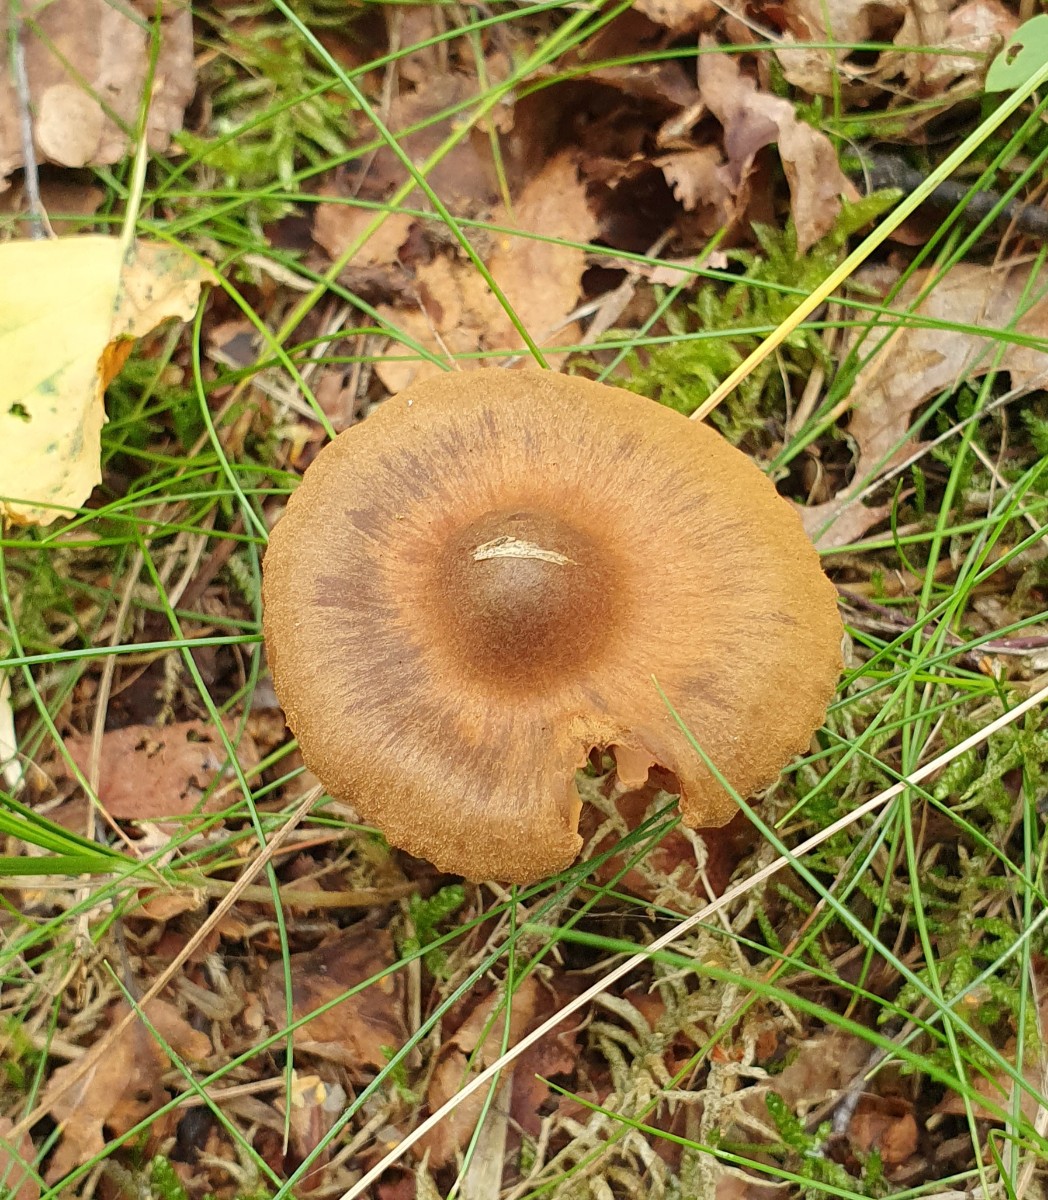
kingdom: Fungi
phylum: Basidiomycota
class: Agaricomycetes
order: Agaricales
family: Cortinariaceae
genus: Cortinarius
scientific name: Cortinarius raphanoides
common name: ræddike-slørhat
